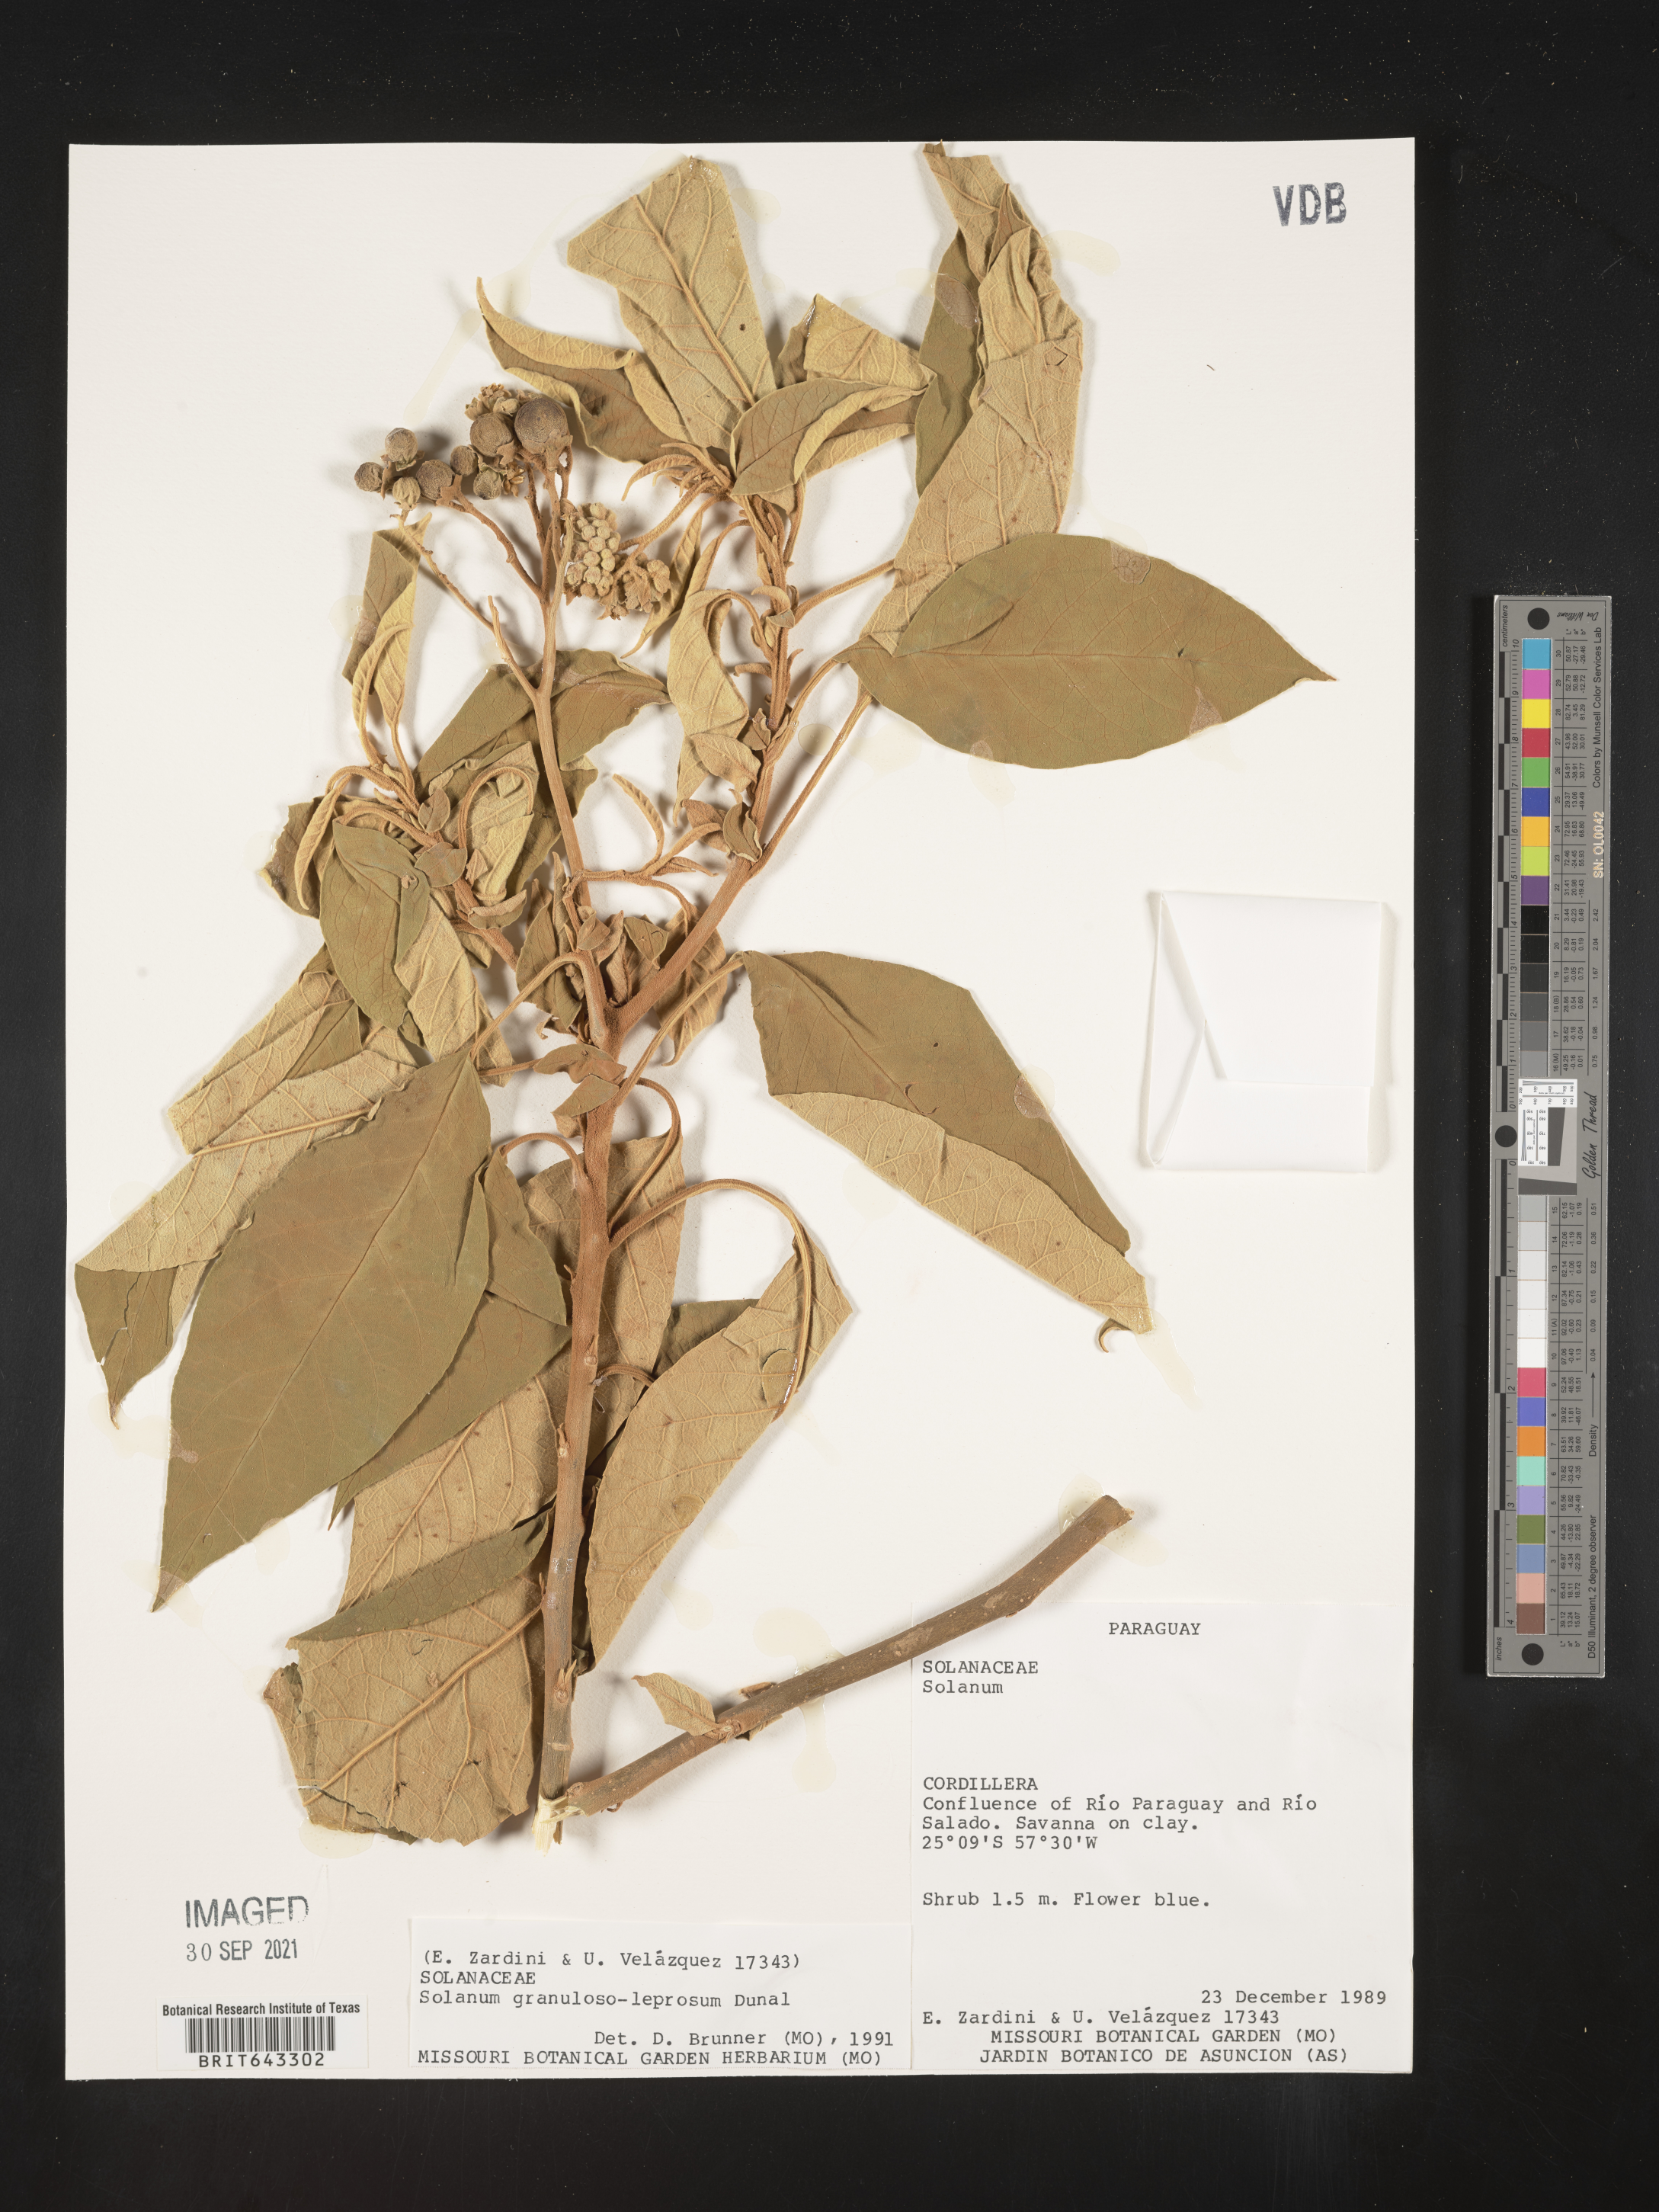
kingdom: Plantae
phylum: Tracheophyta
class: Magnoliopsida
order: Solanales
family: Solanaceae
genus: Solanum
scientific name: Solanum
